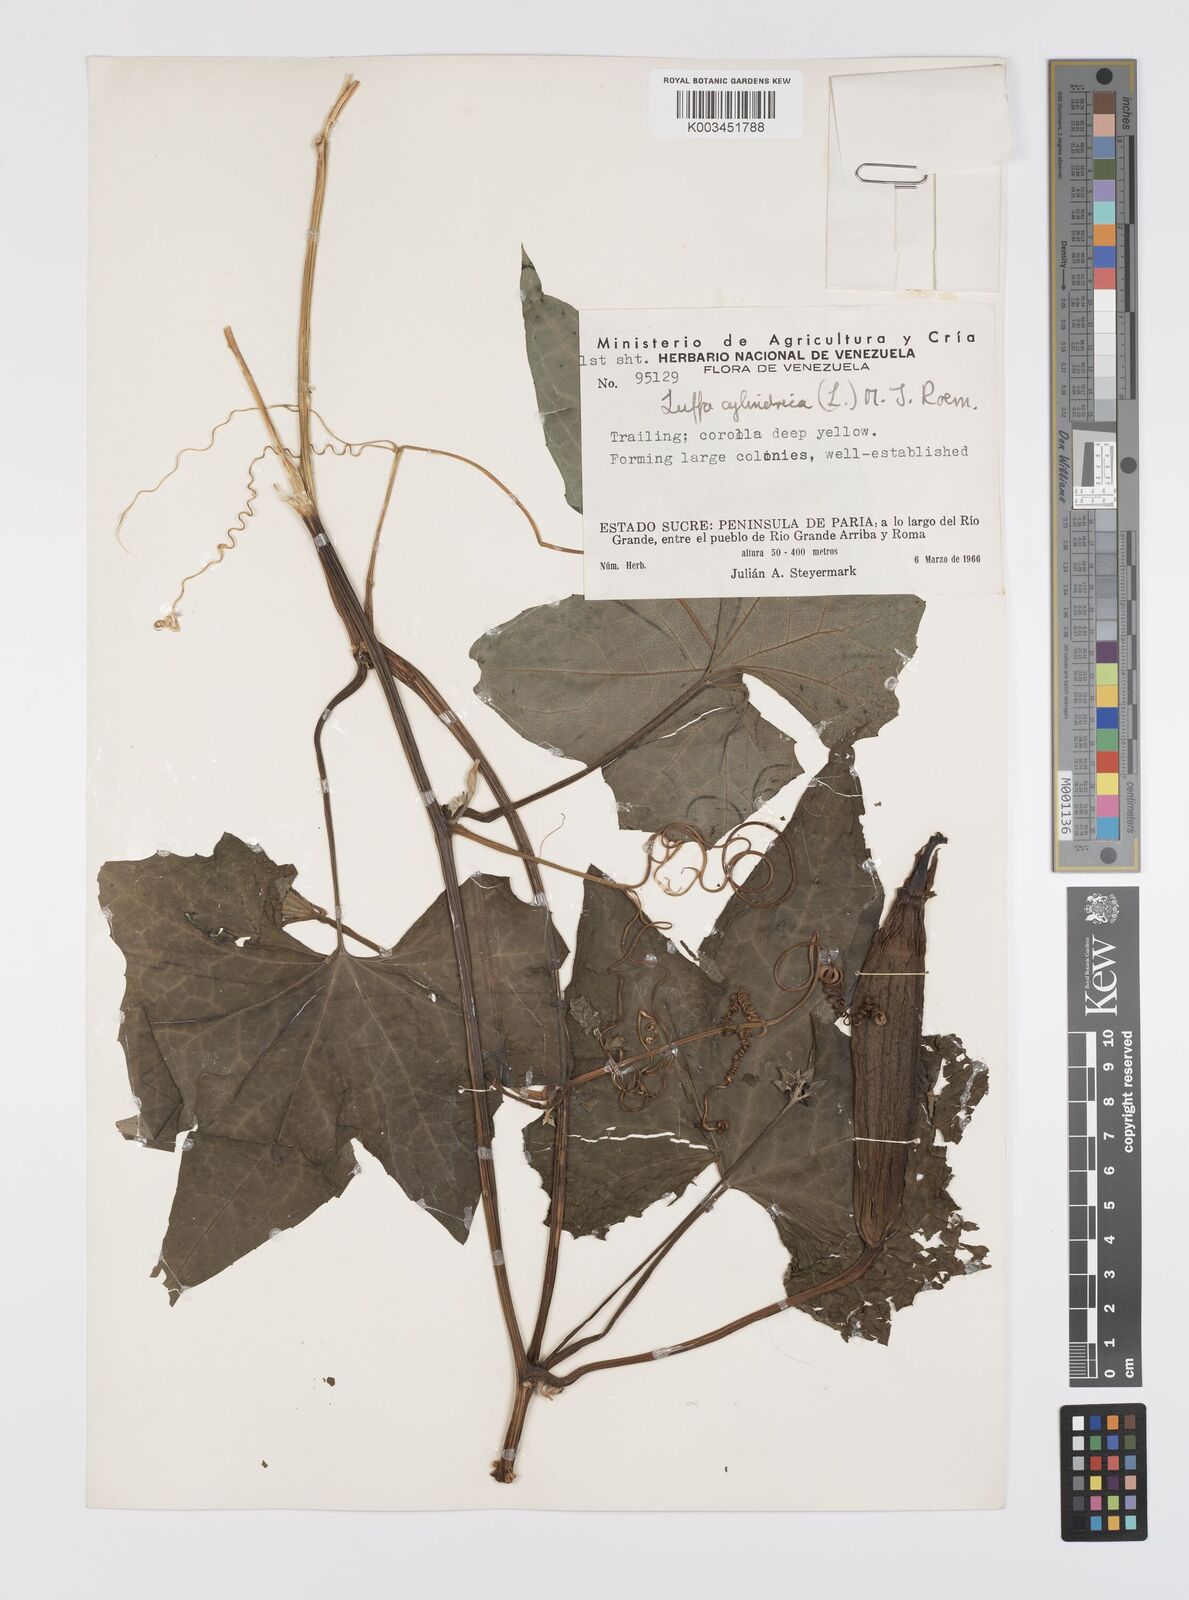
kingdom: Plantae
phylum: Tracheophyta
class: Magnoliopsida
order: Cucurbitales
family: Cucurbitaceae
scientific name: Cucurbitaceae
